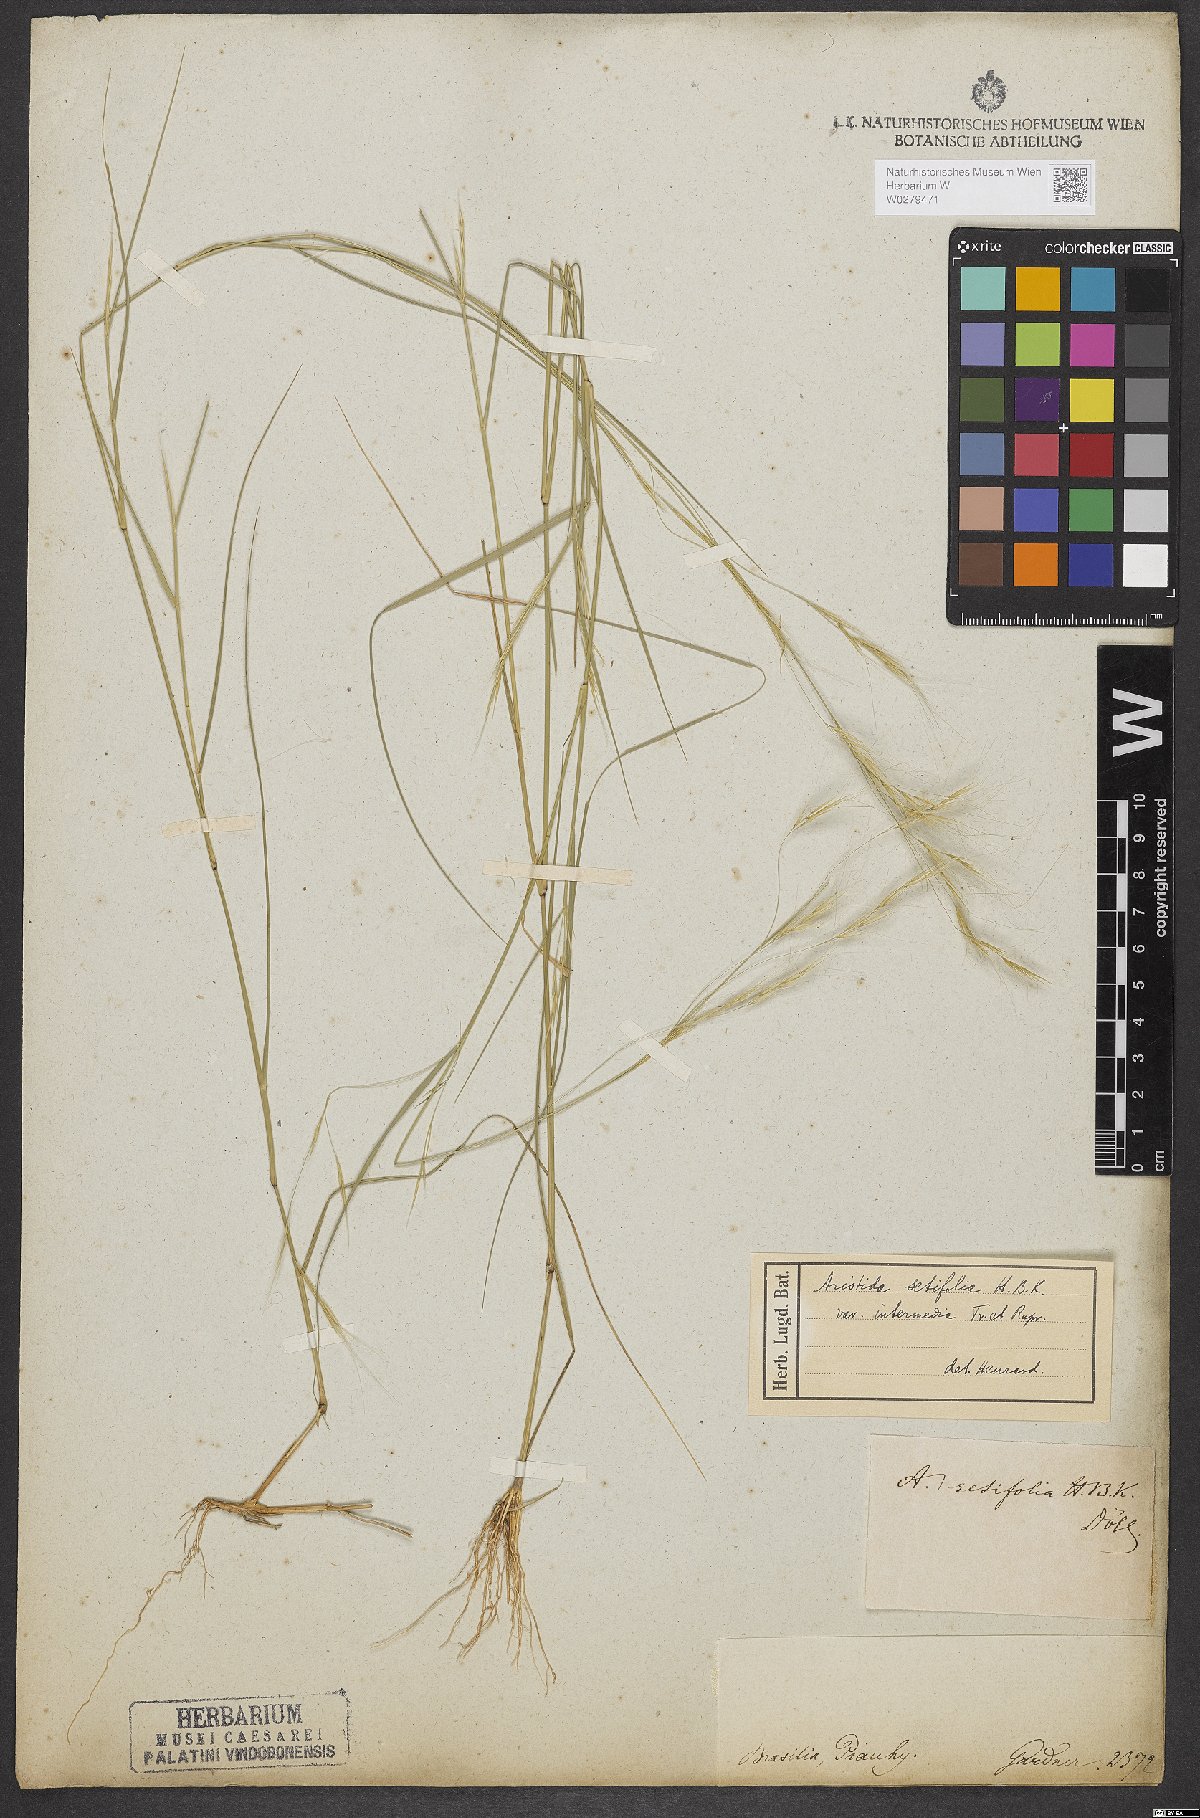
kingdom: Plantae
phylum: Tracheophyta
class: Liliopsida
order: Poales
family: Poaceae
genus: Aristida
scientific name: Aristida setifolia
